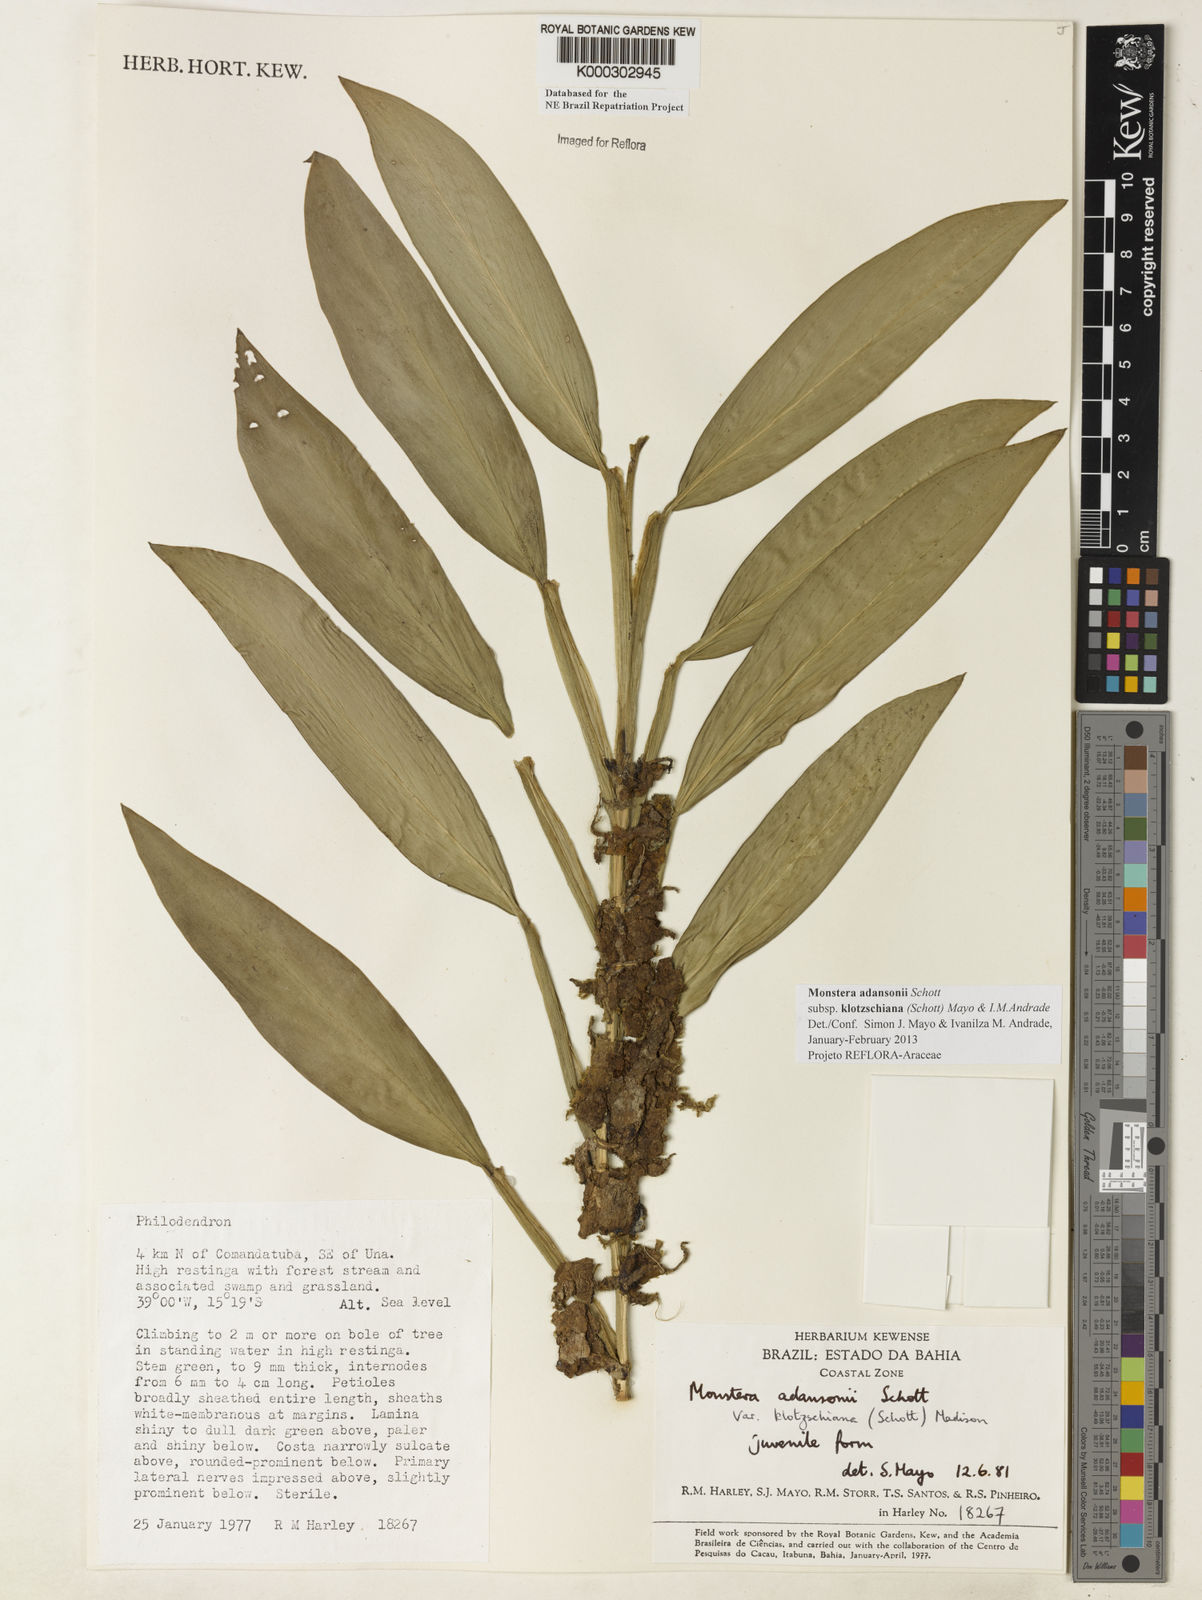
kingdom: Plantae
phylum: Tracheophyta
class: Liliopsida
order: Alismatales
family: Araceae
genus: Monstera
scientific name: Monstera adansonii
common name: Tarovine
